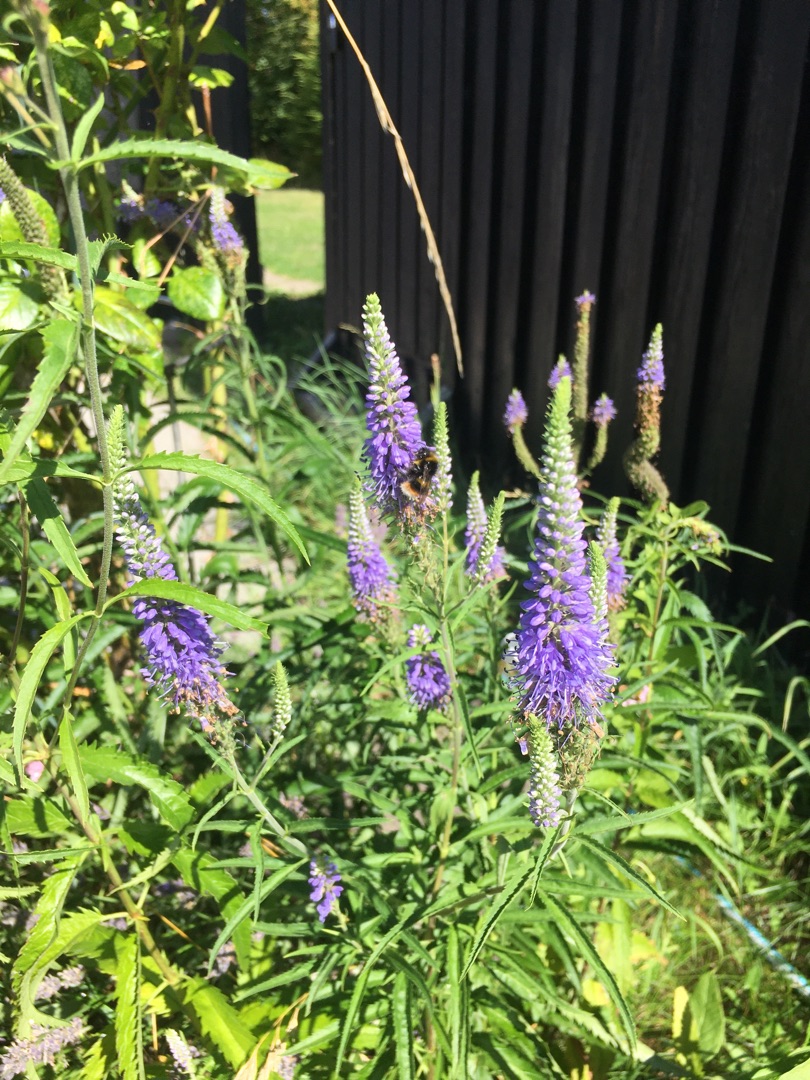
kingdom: Plantae
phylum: Tracheophyta
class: Magnoliopsida
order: Lamiales
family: Plantaginaceae
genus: Veronica
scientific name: Veronica longifolia
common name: Langbladet ærenpris
